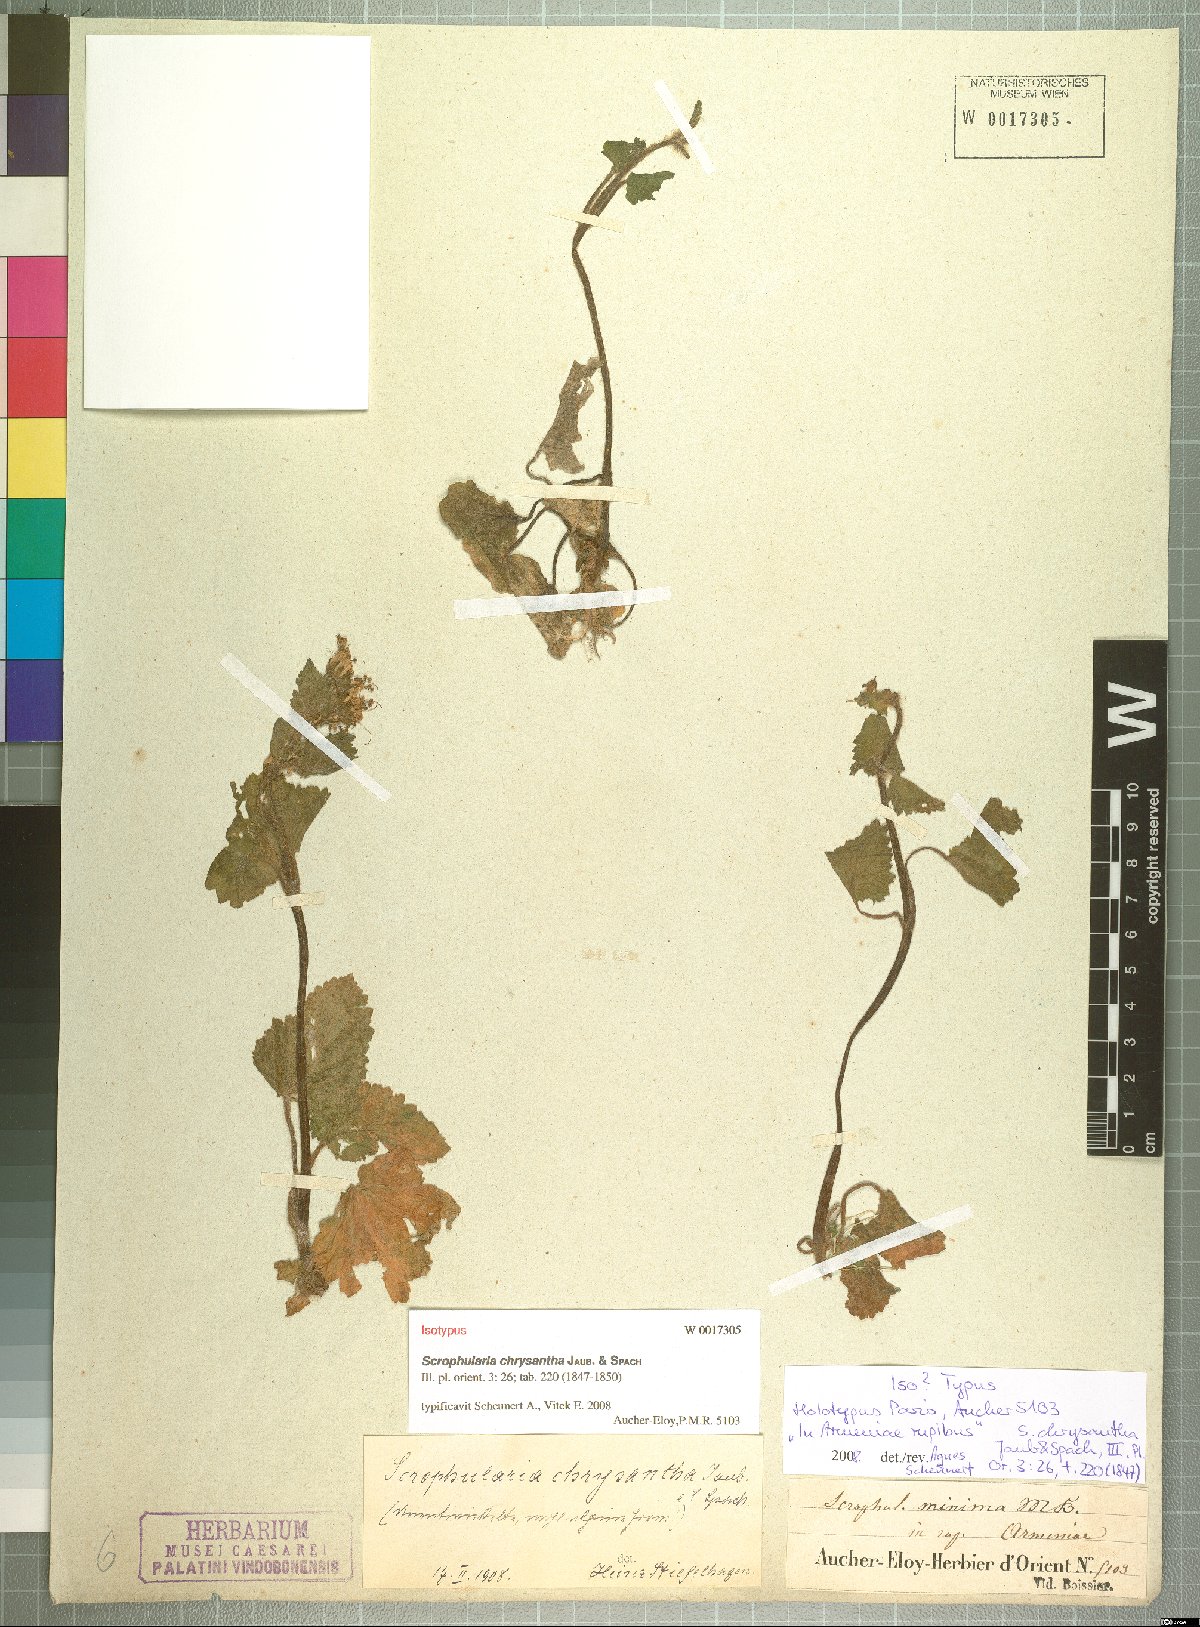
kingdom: Plantae
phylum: Tracheophyta
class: Magnoliopsida
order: Lamiales
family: Scrophulariaceae
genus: Scrophularia
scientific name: Scrophularia chrysantha
